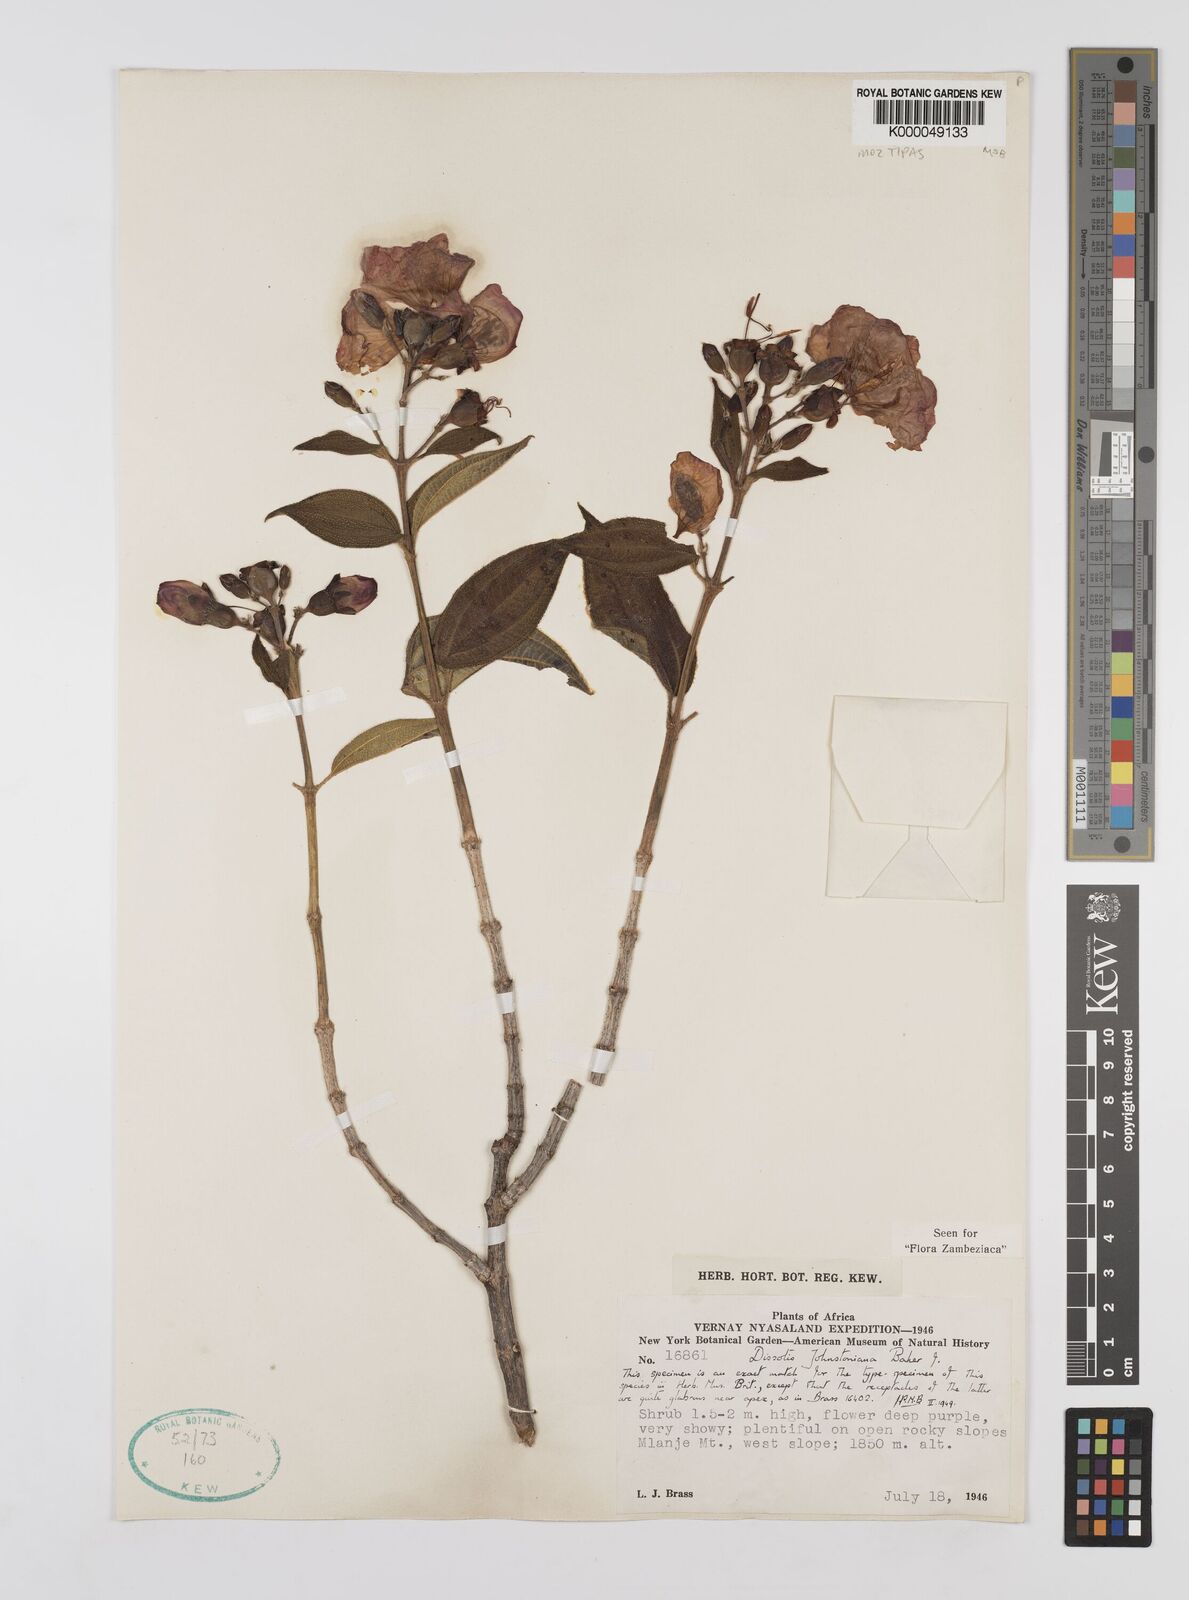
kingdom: Plantae
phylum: Tracheophyta
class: Magnoliopsida
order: Myrtales
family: Melastomataceae
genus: Dissotidendron
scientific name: Dissotidendron johnstonianum
